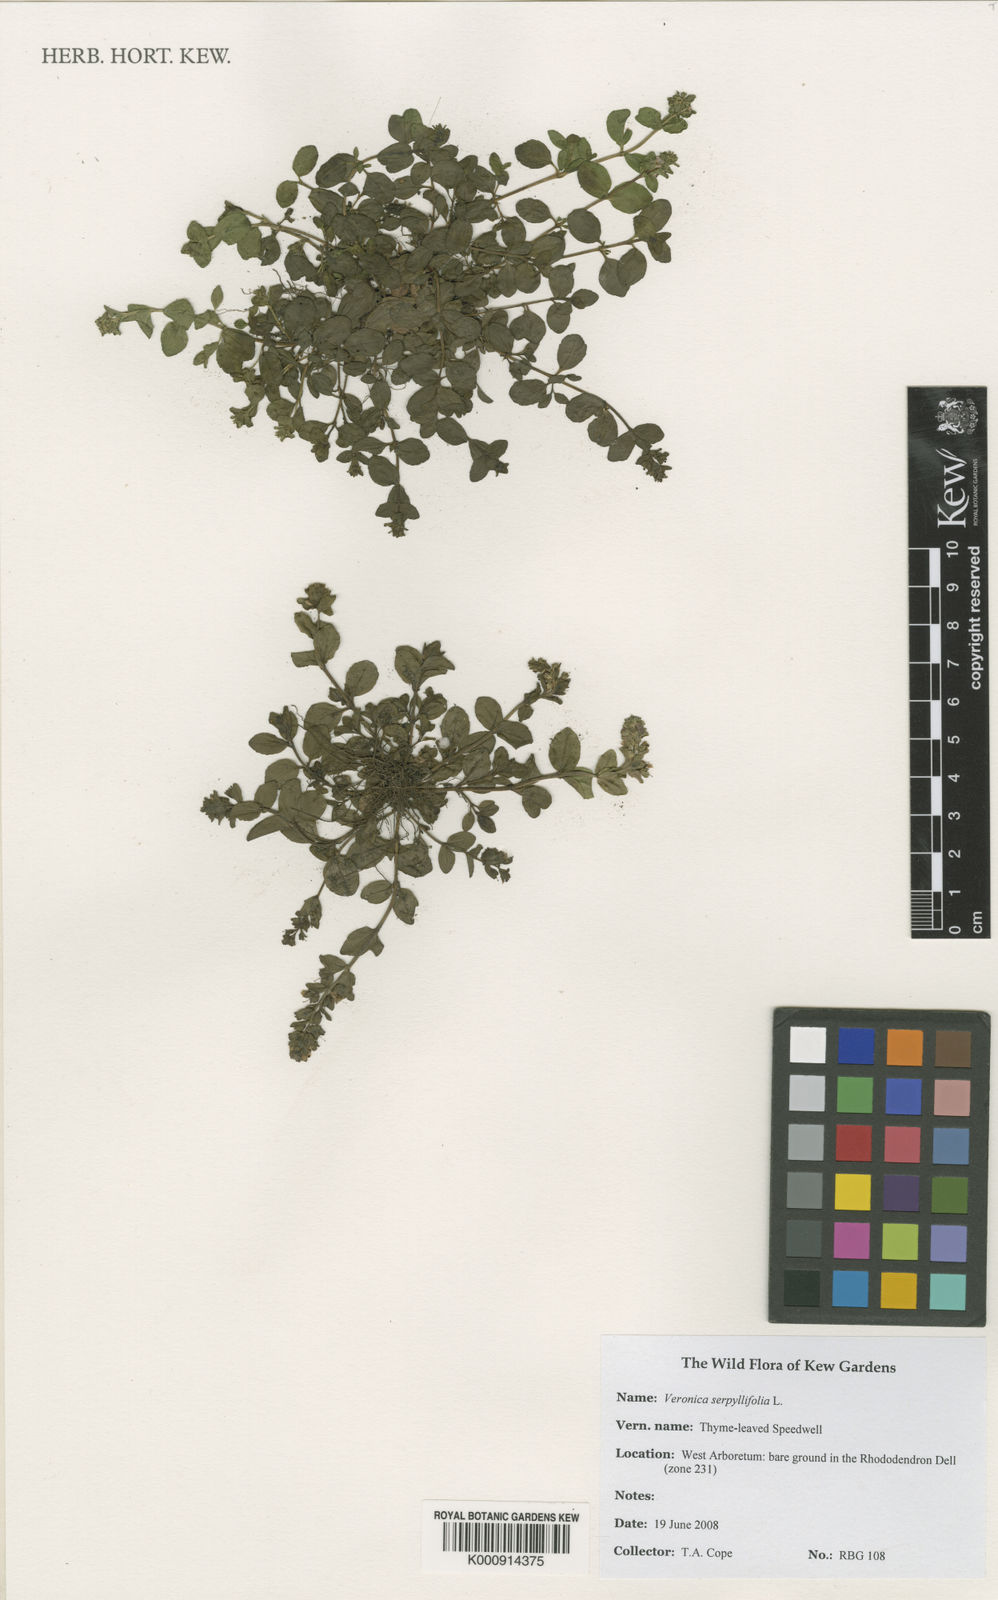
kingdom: Plantae
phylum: Tracheophyta
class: Magnoliopsida
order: Lamiales
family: Plantaginaceae
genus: Veronica
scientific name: Veronica serpyllifolia
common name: Thyme-leaved speedwell
